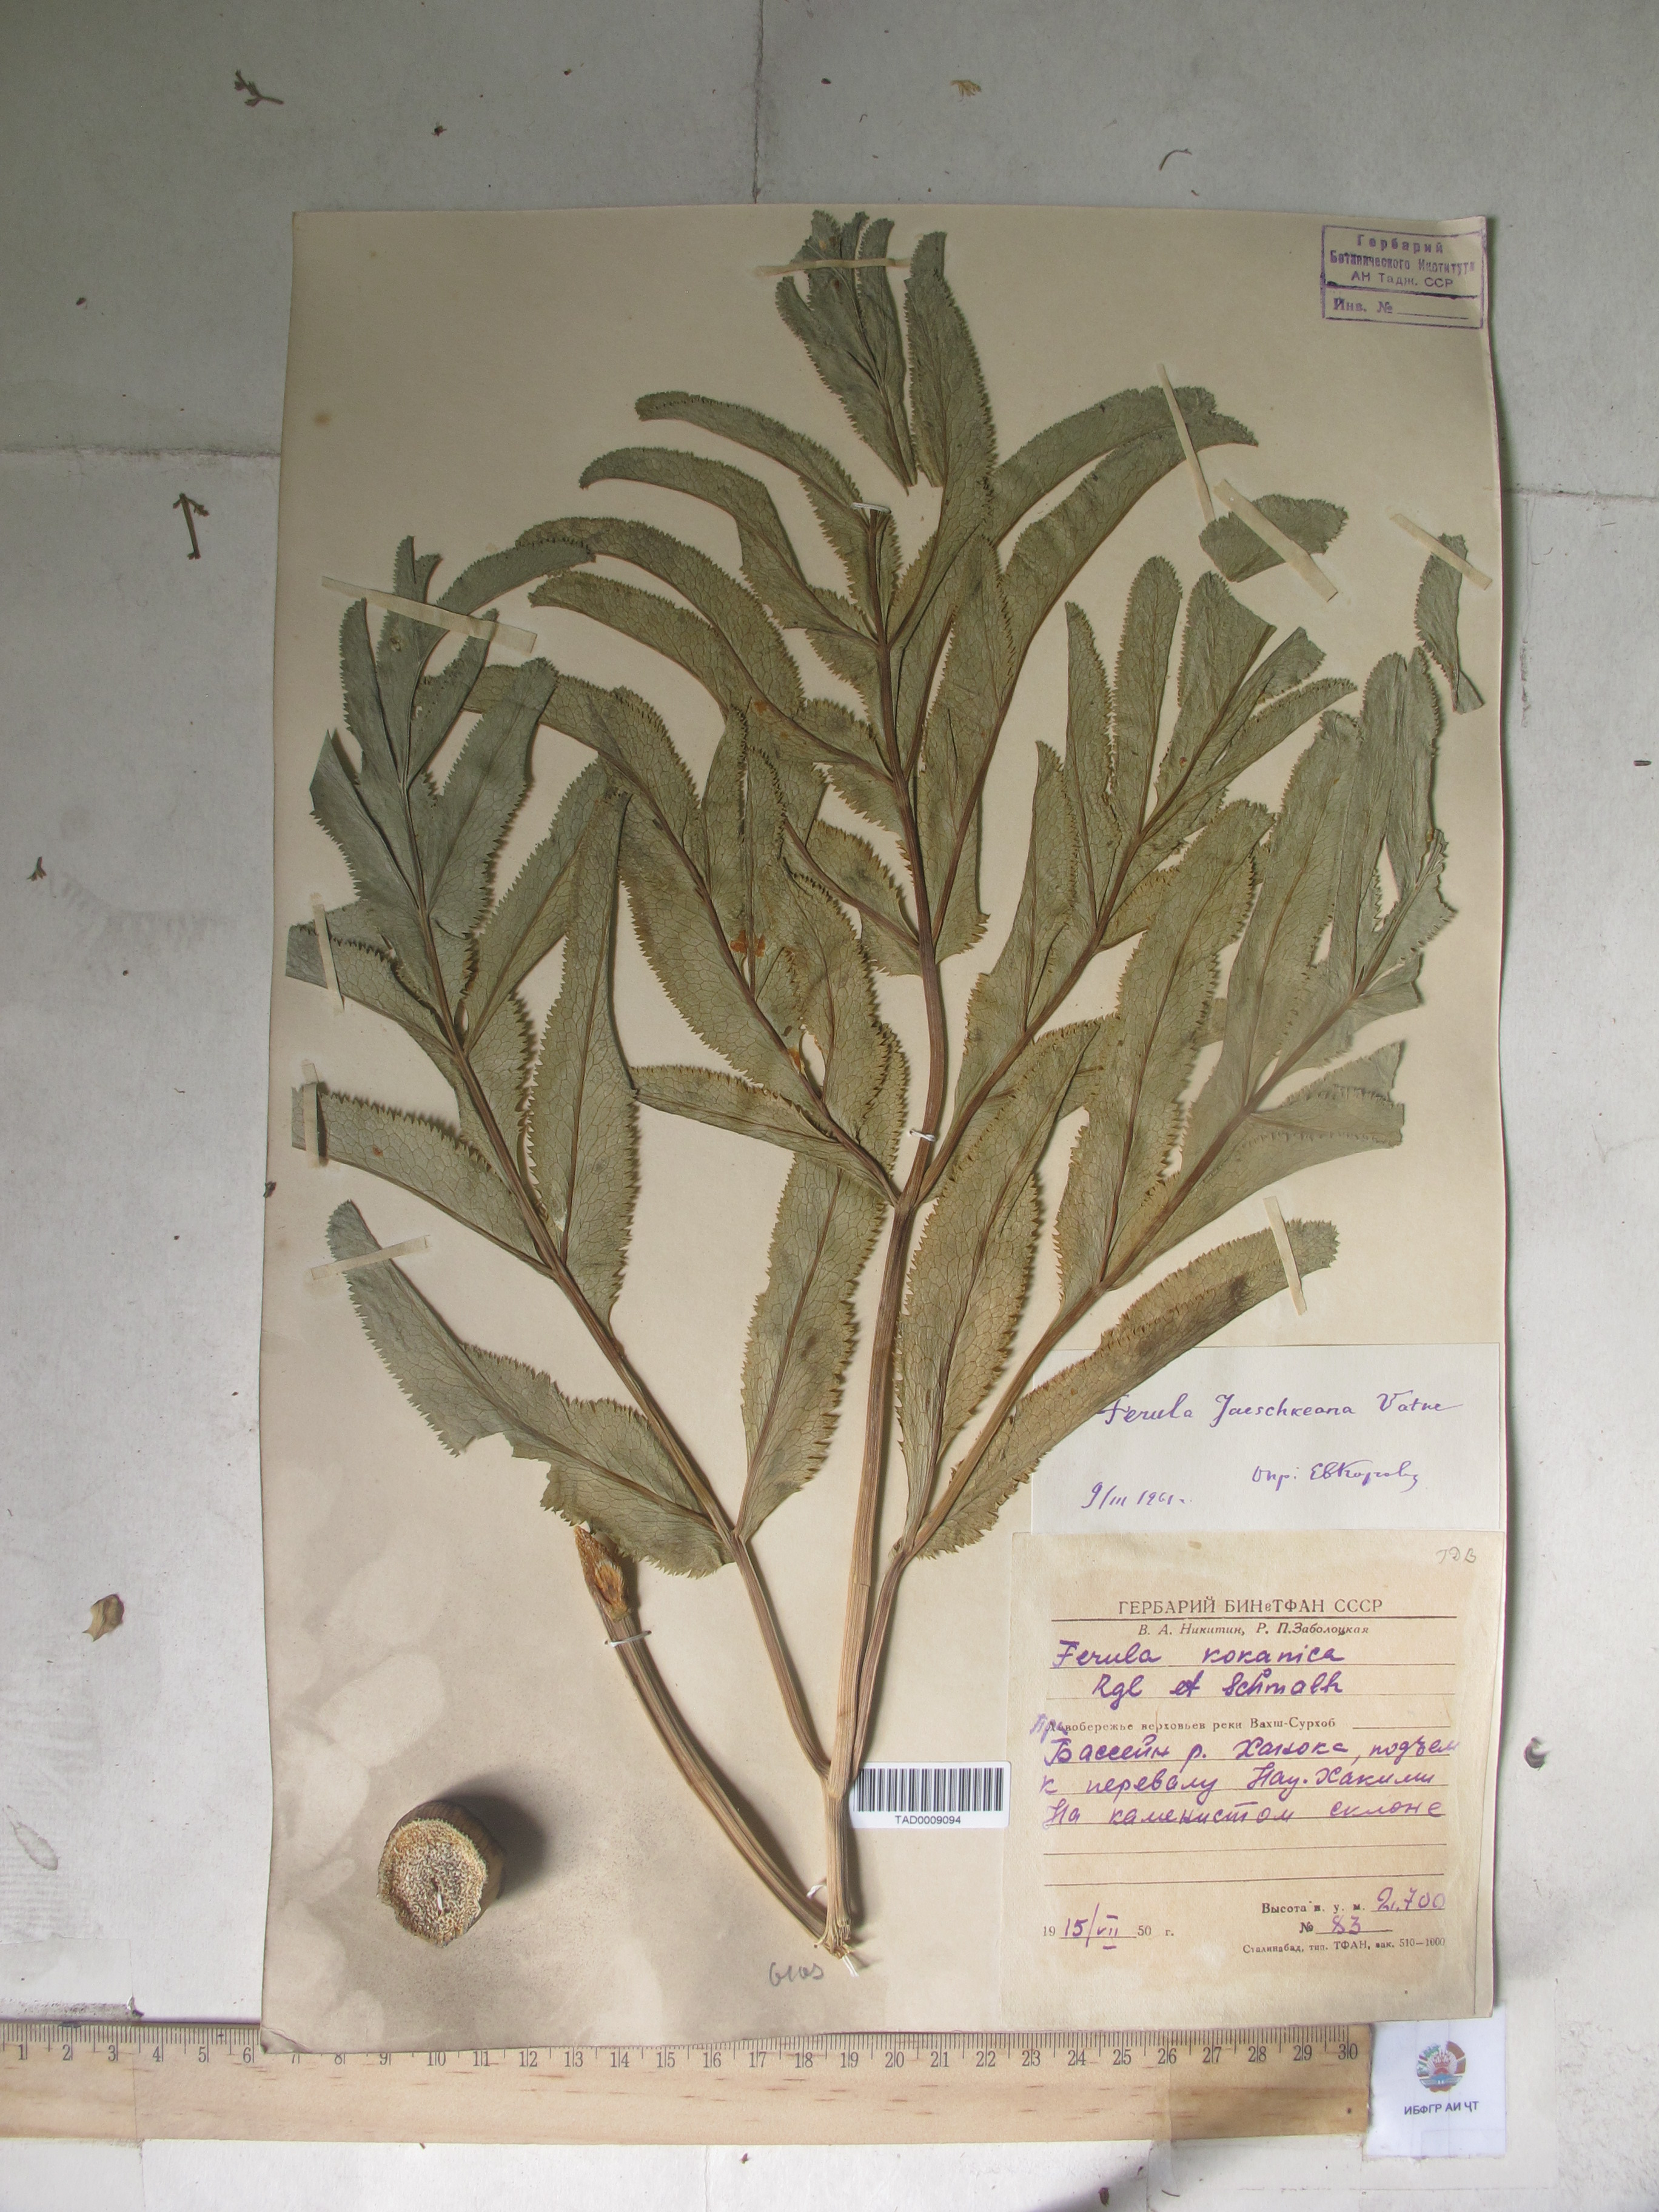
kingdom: Plantae
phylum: Tracheophyta
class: Magnoliopsida
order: Apiales
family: Apiaceae
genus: Ferula
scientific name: Ferula jaeschkeana
